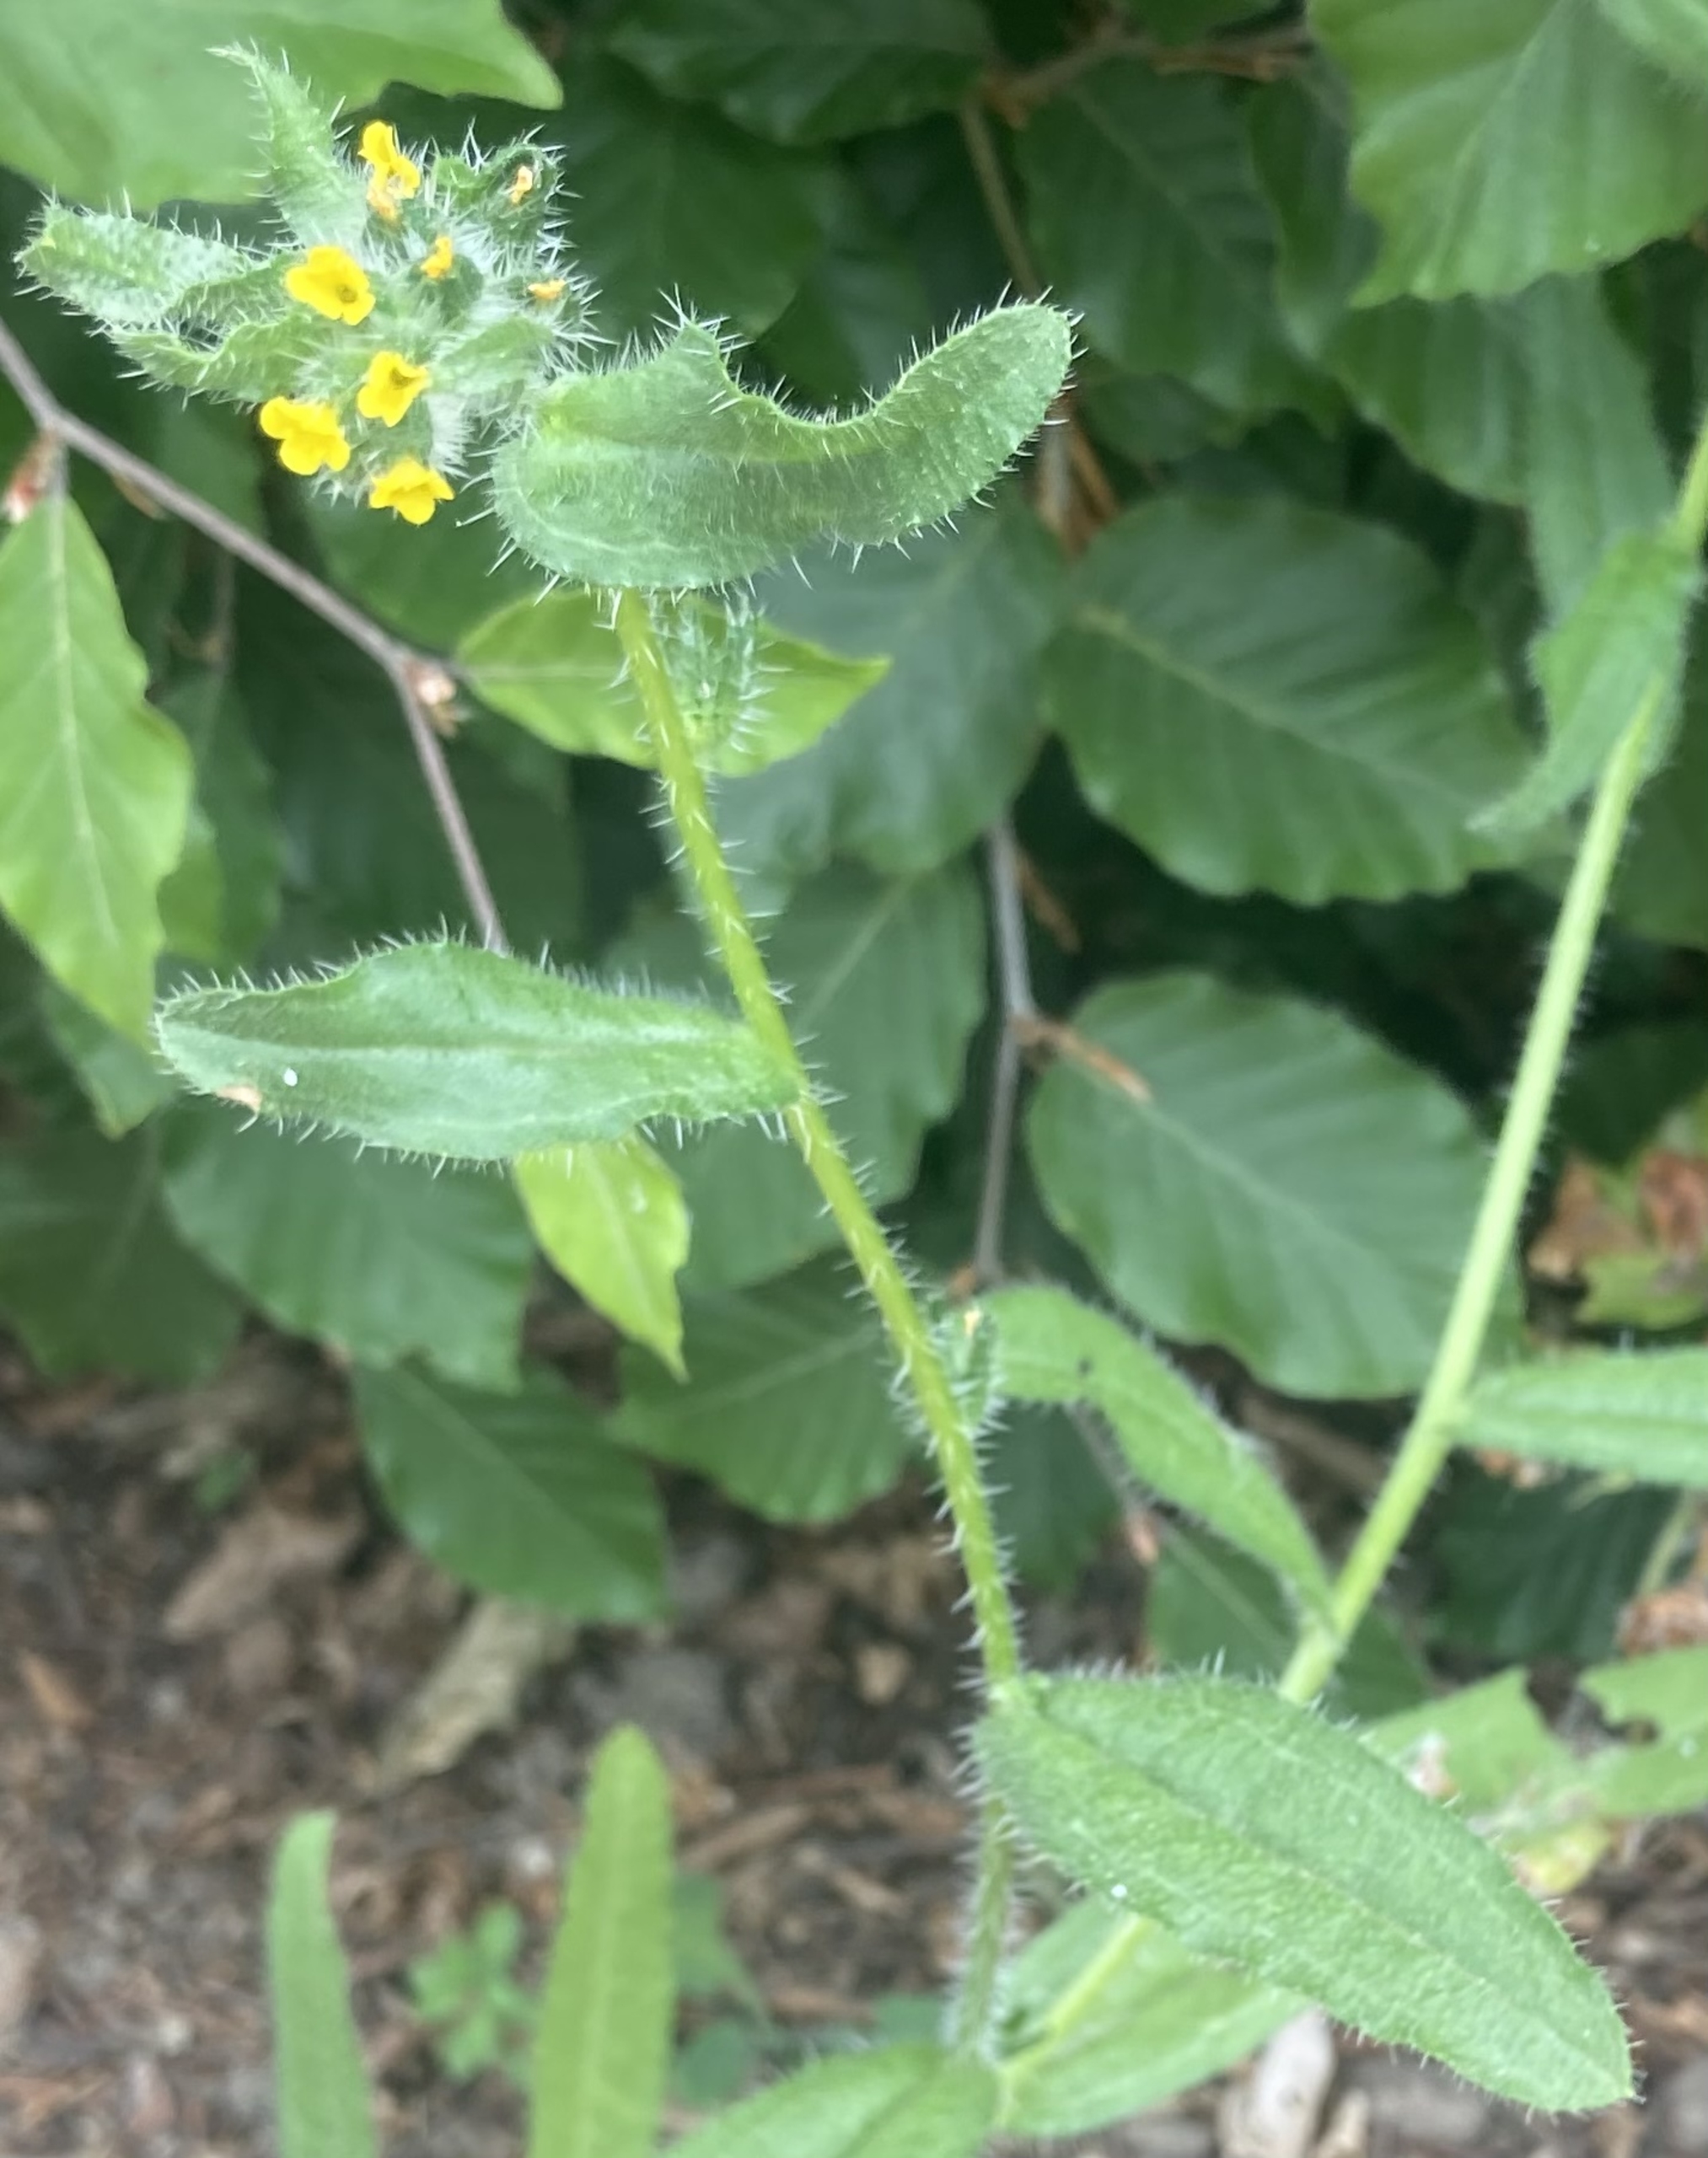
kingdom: Plantae
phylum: Tracheophyta
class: Magnoliopsida
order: Boraginales
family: Boraginaceae
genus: Amsinckia
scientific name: Amsinckia menziesii
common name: Småblomstret gulurt
